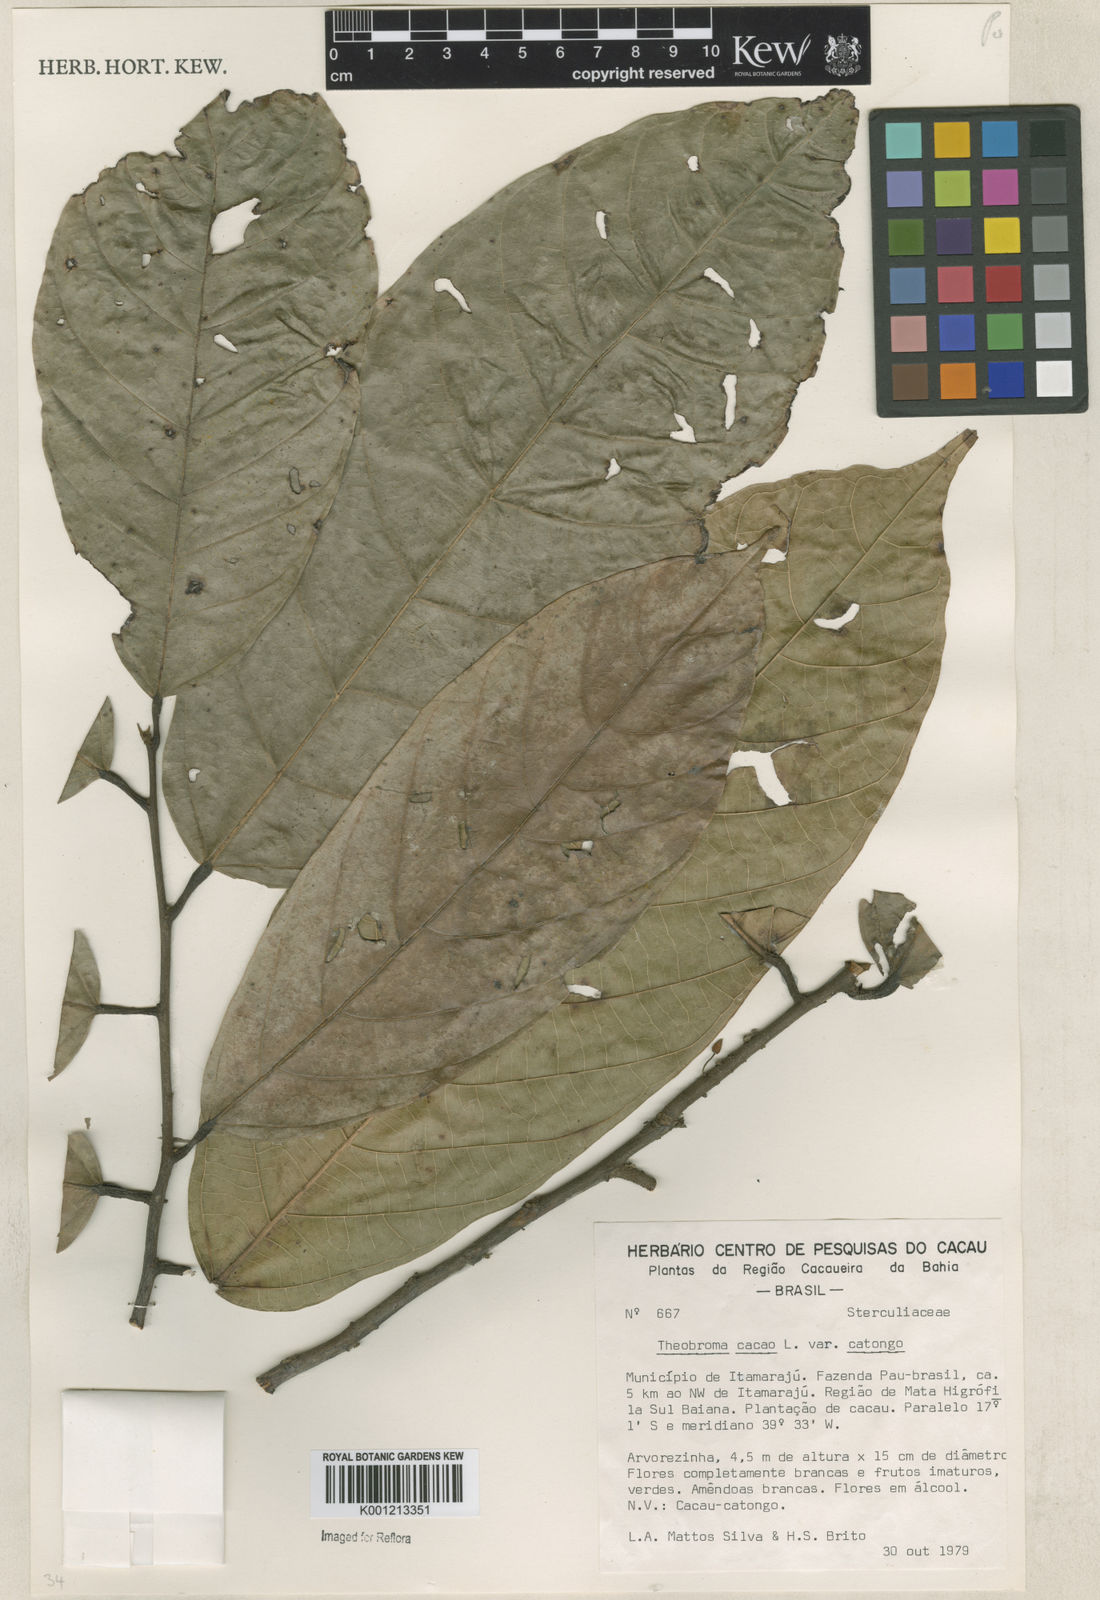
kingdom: Plantae
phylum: Tracheophyta
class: Magnoliopsida
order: Malvales
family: Malvaceae
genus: Theobroma
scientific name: Theobroma cacao
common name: Cocoa
